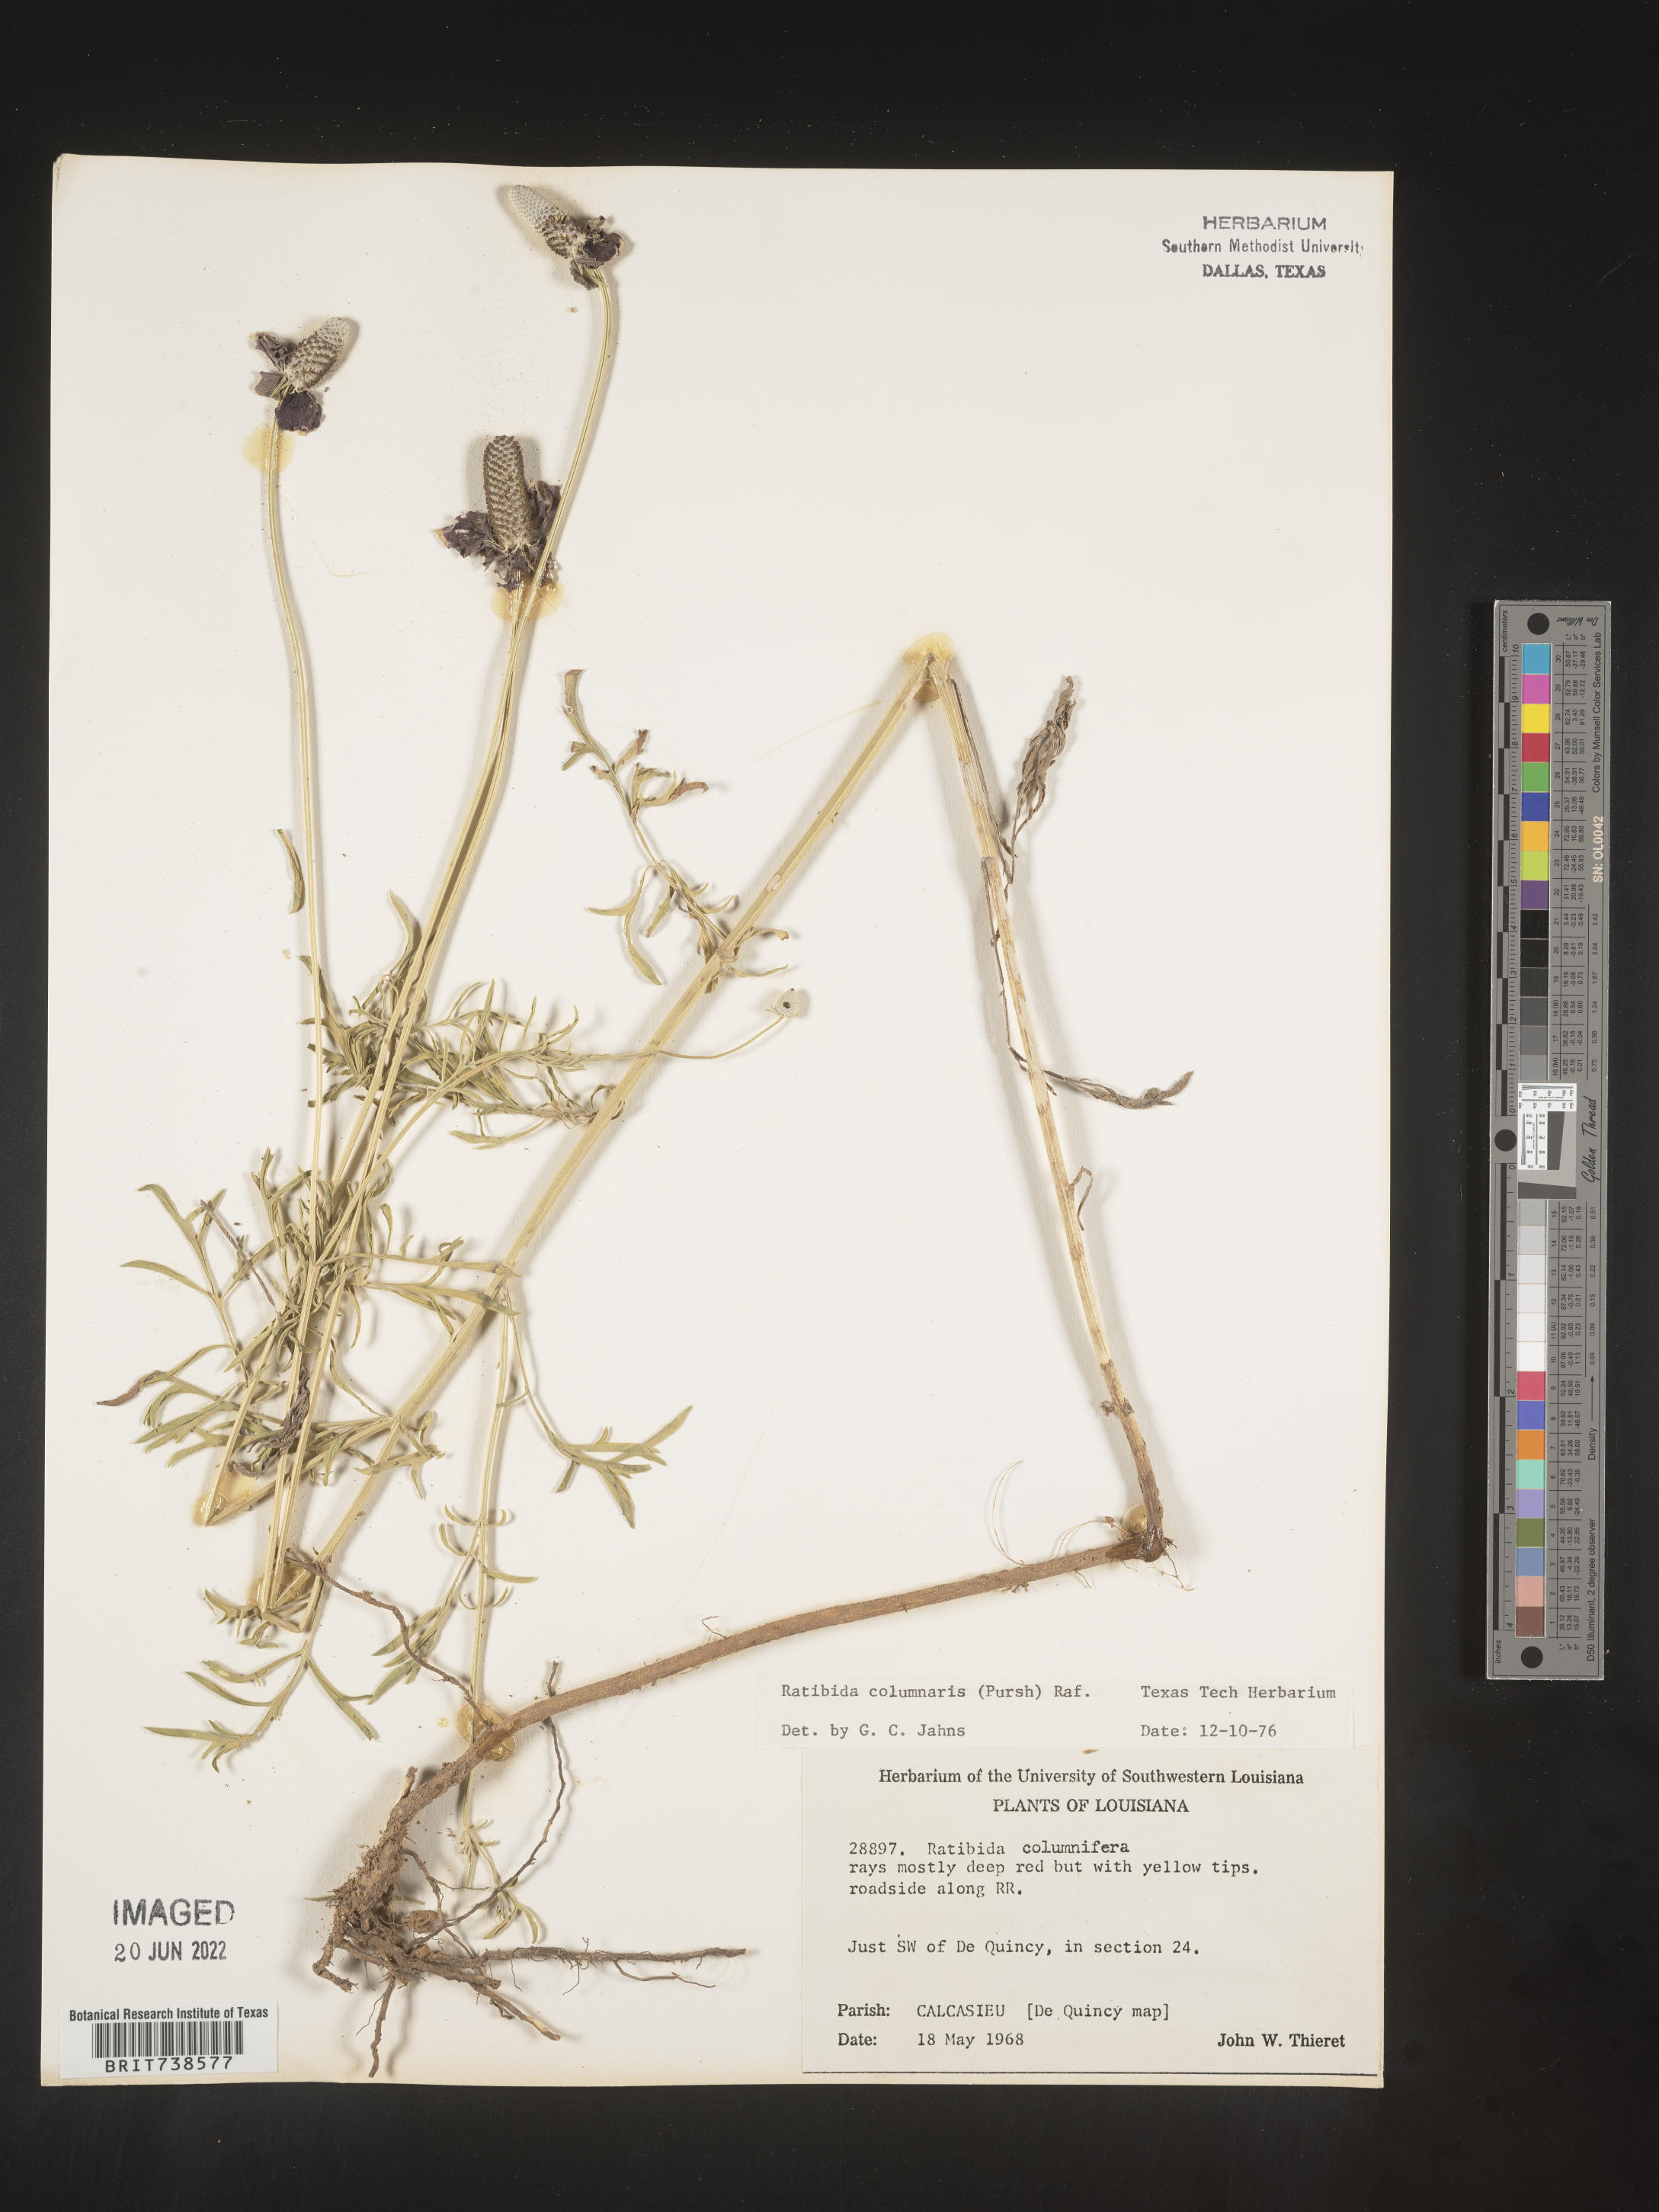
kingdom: Plantae
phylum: Tracheophyta
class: Magnoliopsida
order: Asterales
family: Asteraceae
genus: Ratibida
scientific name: Ratibida columnifera
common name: Prairie coneflower
